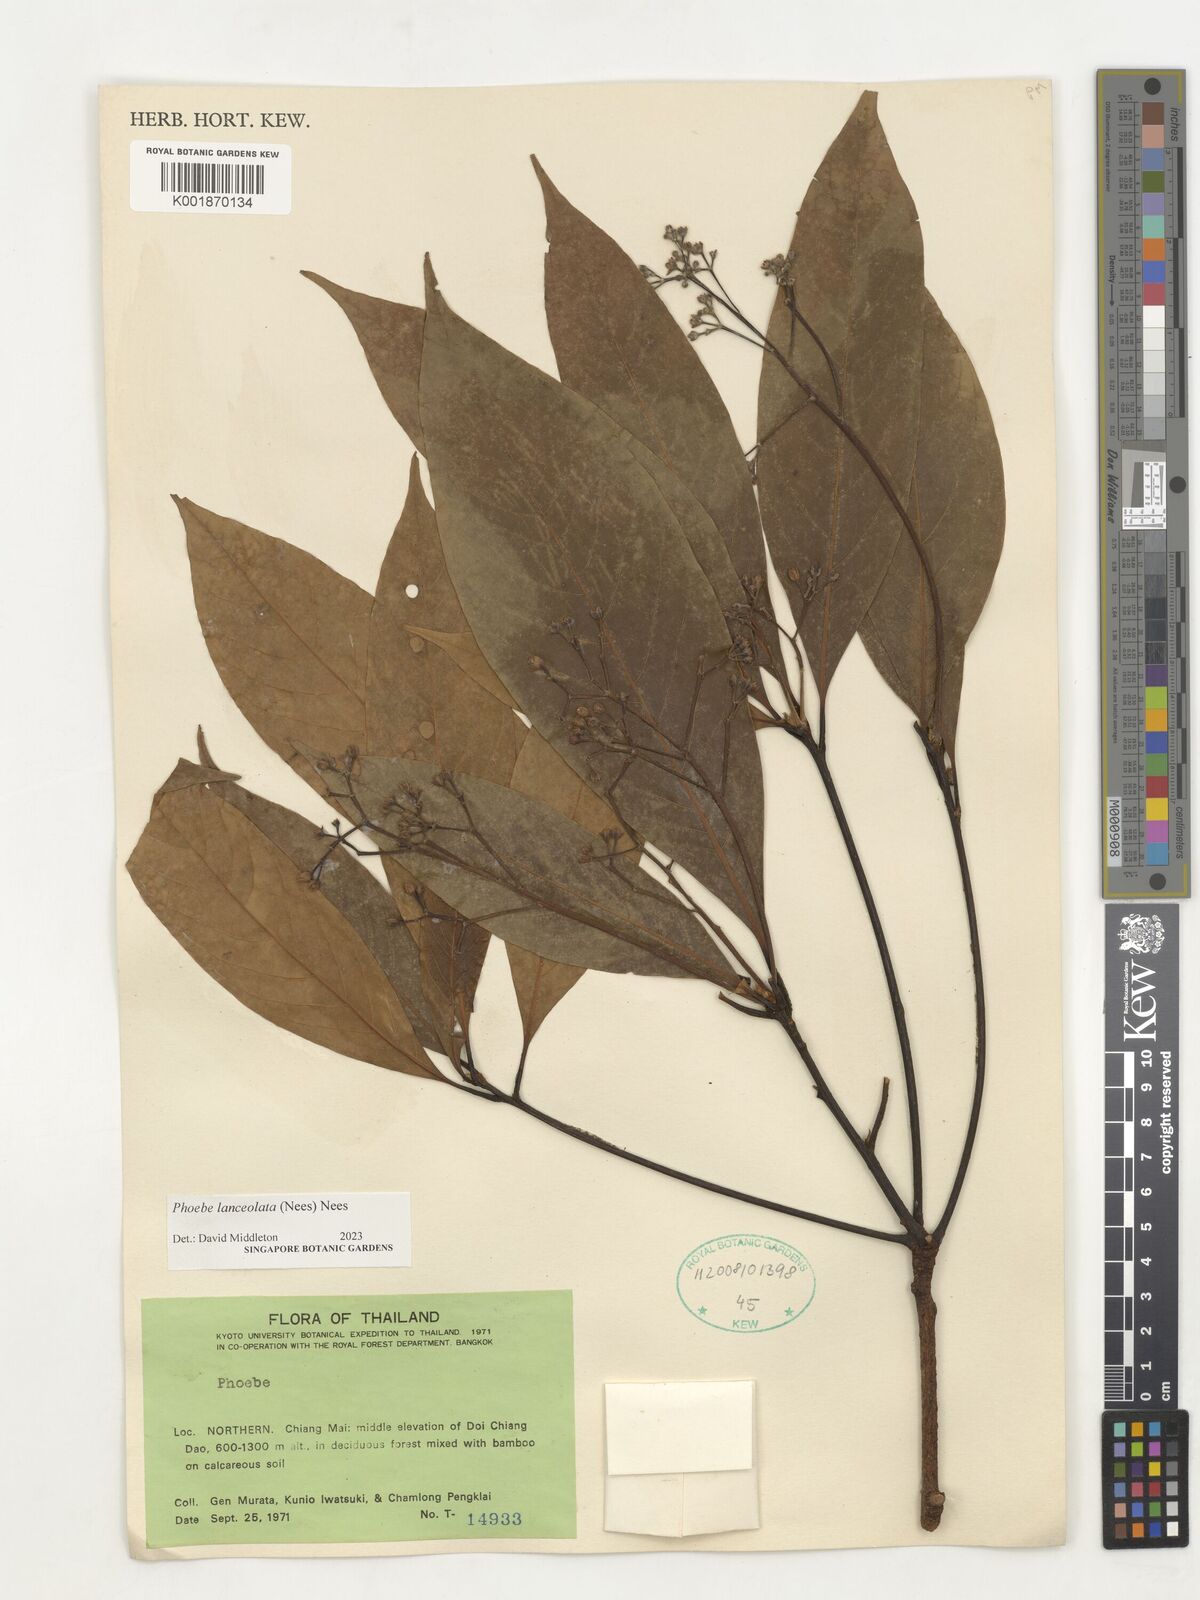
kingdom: Plantae
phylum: Tracheophyta
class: Magnoliopsida
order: Laurales
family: Lauraceae
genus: Phoebe
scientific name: Phoebe lanceolata
